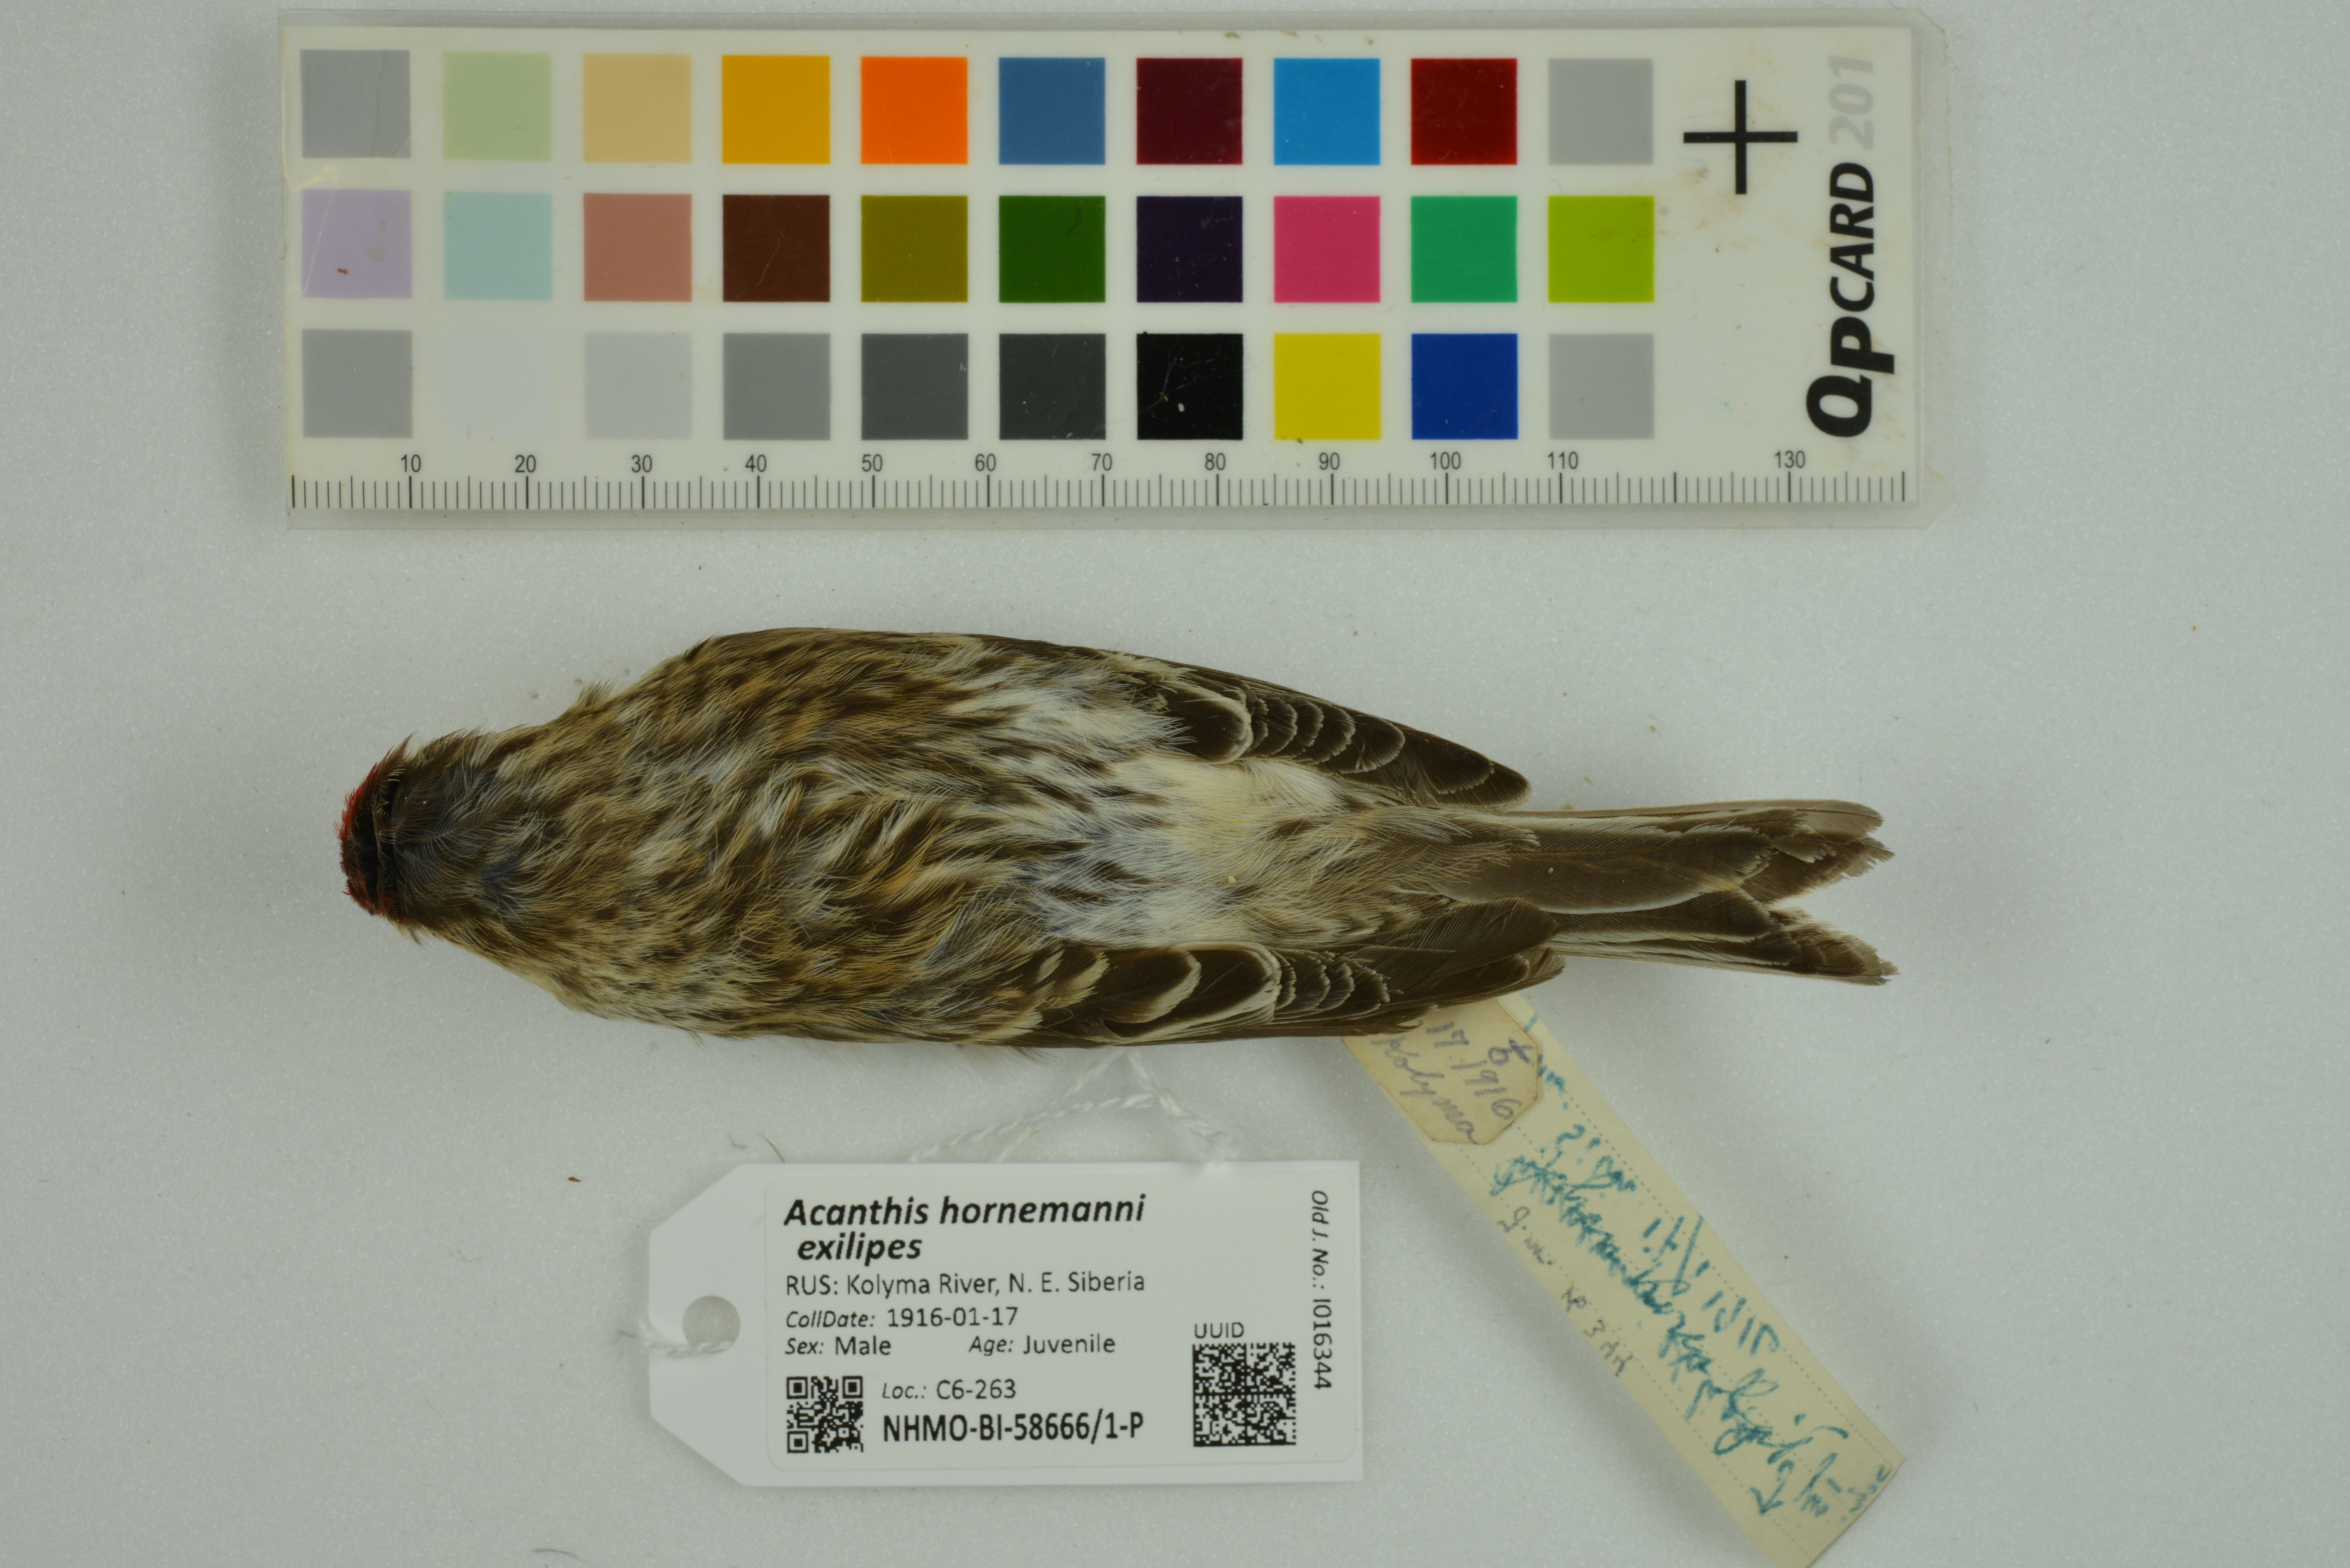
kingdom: Animalia
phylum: Chordata
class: Aves
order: Passeriformes
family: Fringillidae
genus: Acanthis
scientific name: Acanthis hornemanni
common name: Arctic redpoll
